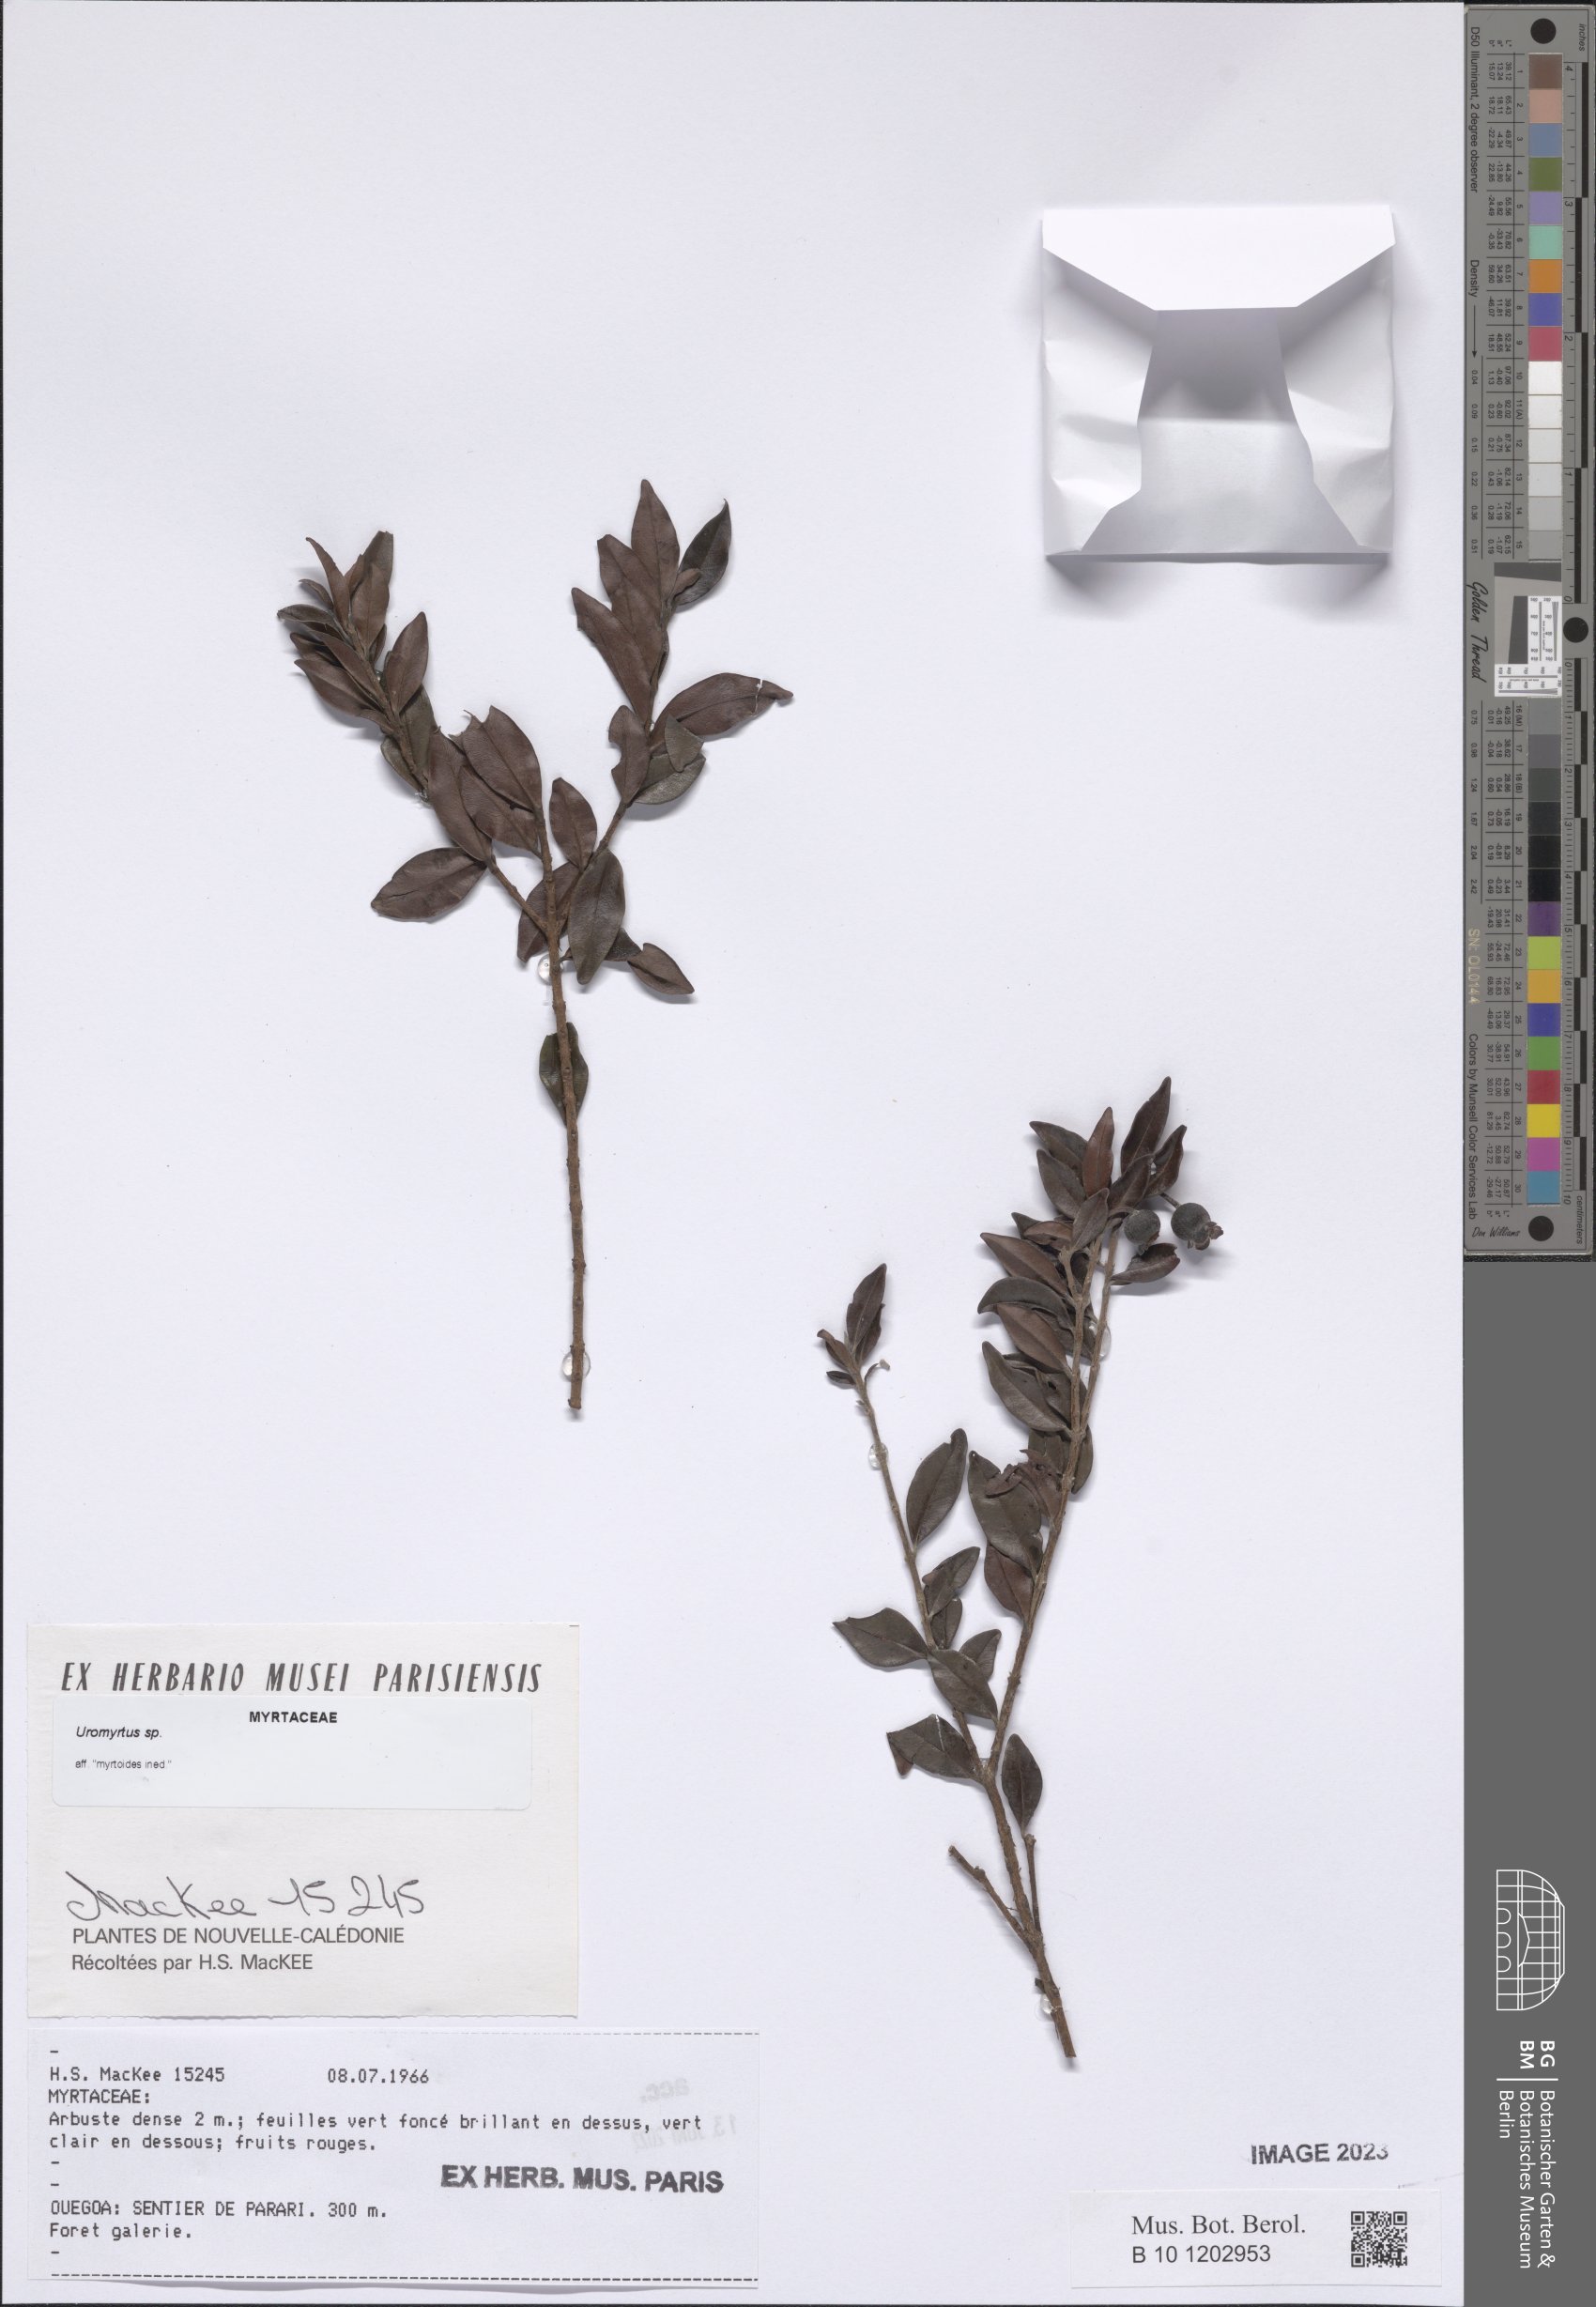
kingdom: Plantae
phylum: Tracheophyta
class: Magnoliopsida
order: Myrtales
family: Myrtaceae
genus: Uromyrtus
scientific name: Uromyrtus
